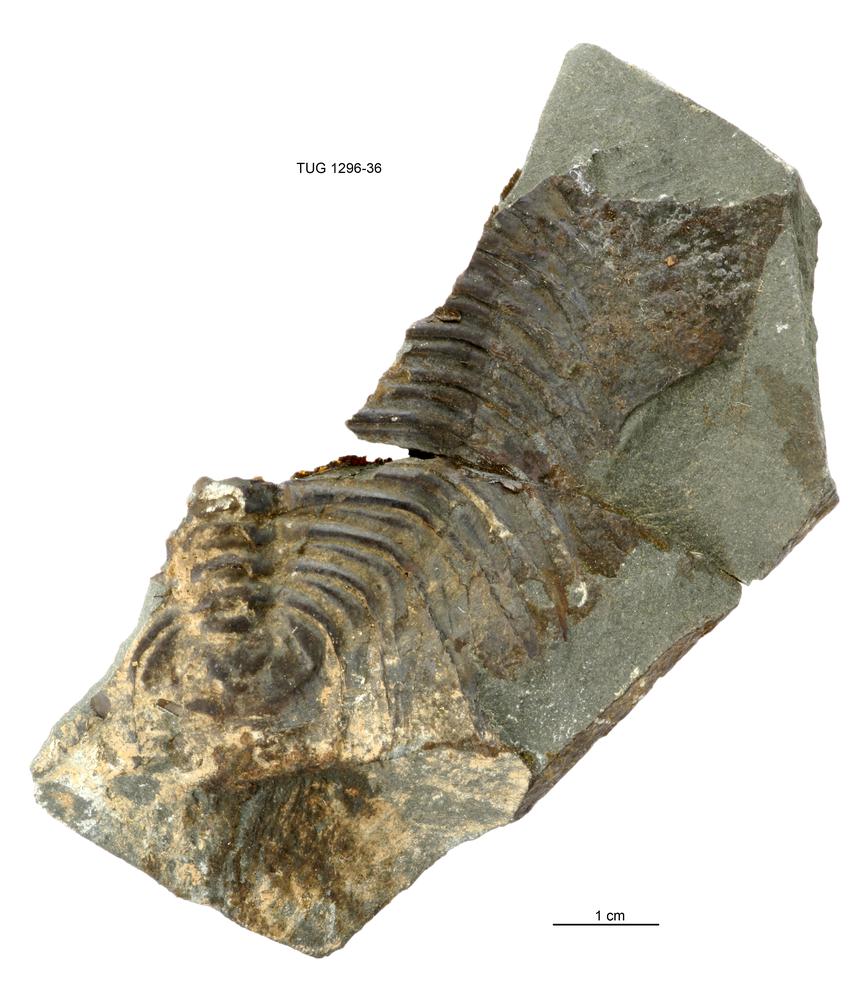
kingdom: Animalia
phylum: Arthropoda
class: Trilobita
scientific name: Trilobita
